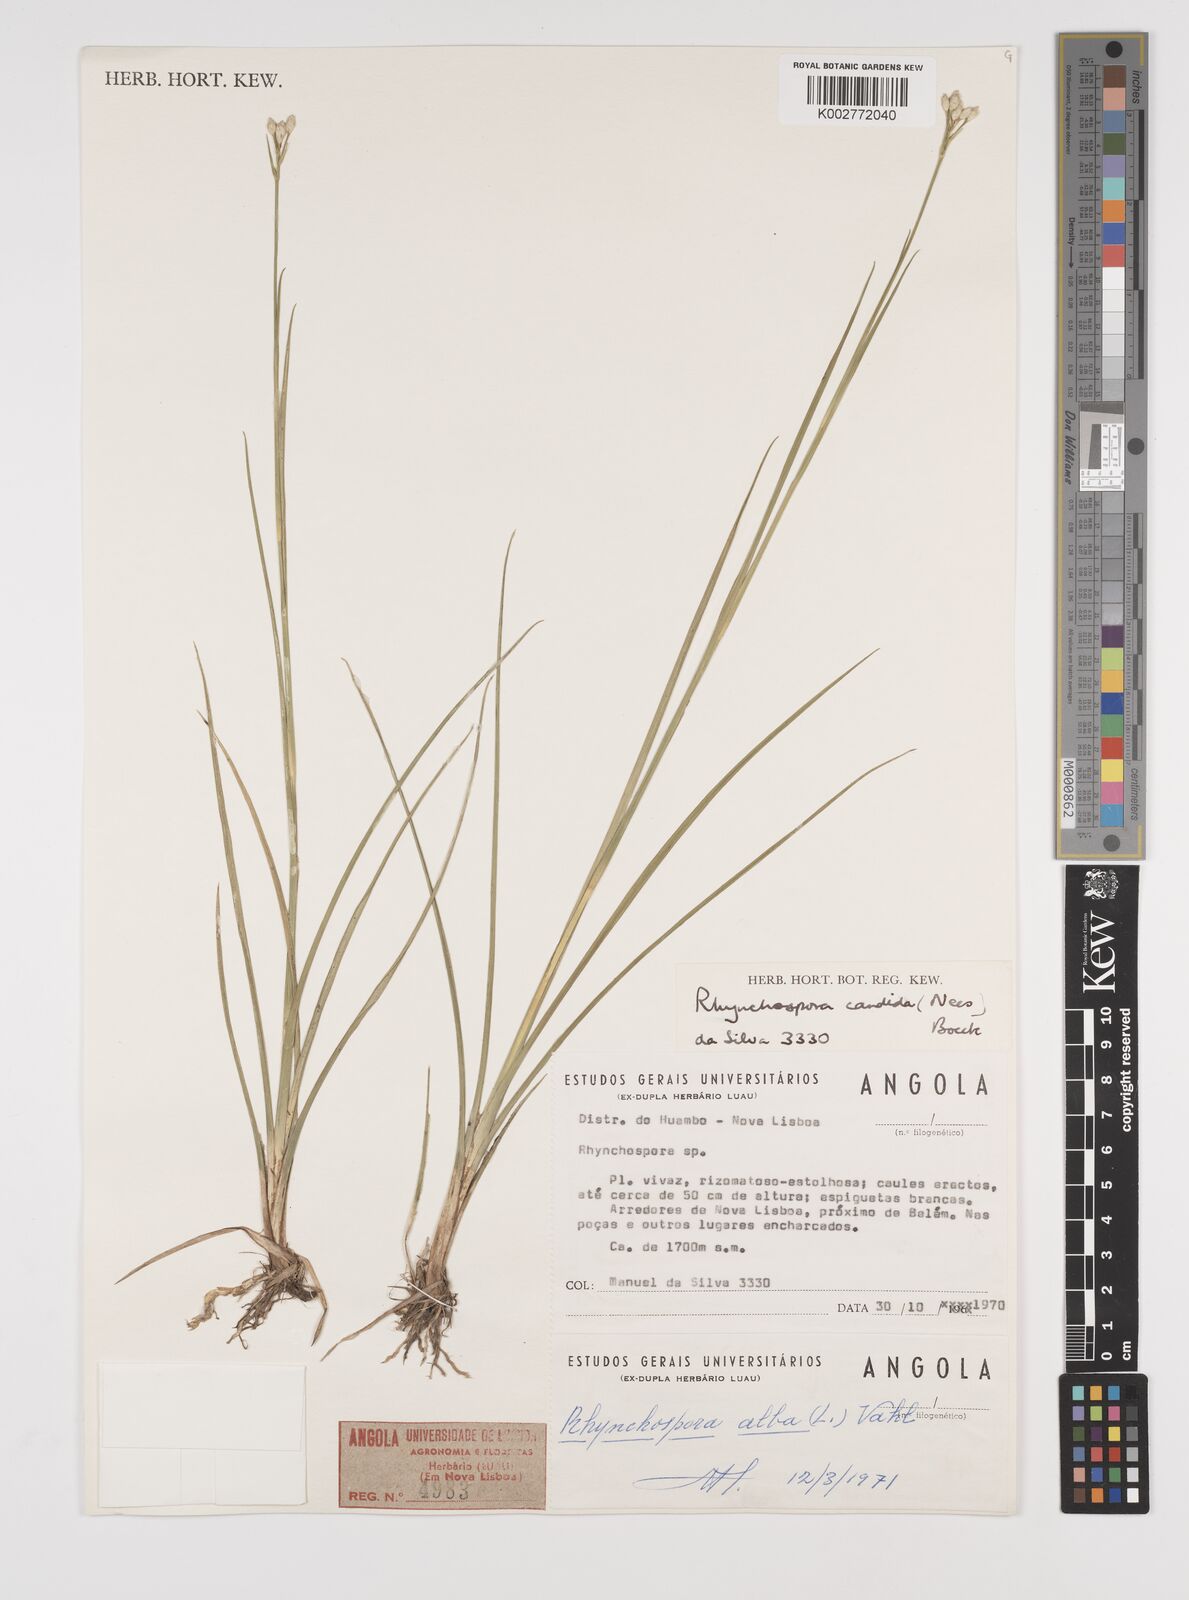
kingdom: Plantae
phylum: Tracheophyta
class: Liliopsida
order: Poales
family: Cyperaceae
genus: Rhynchospora
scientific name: Rhynchospora candida
